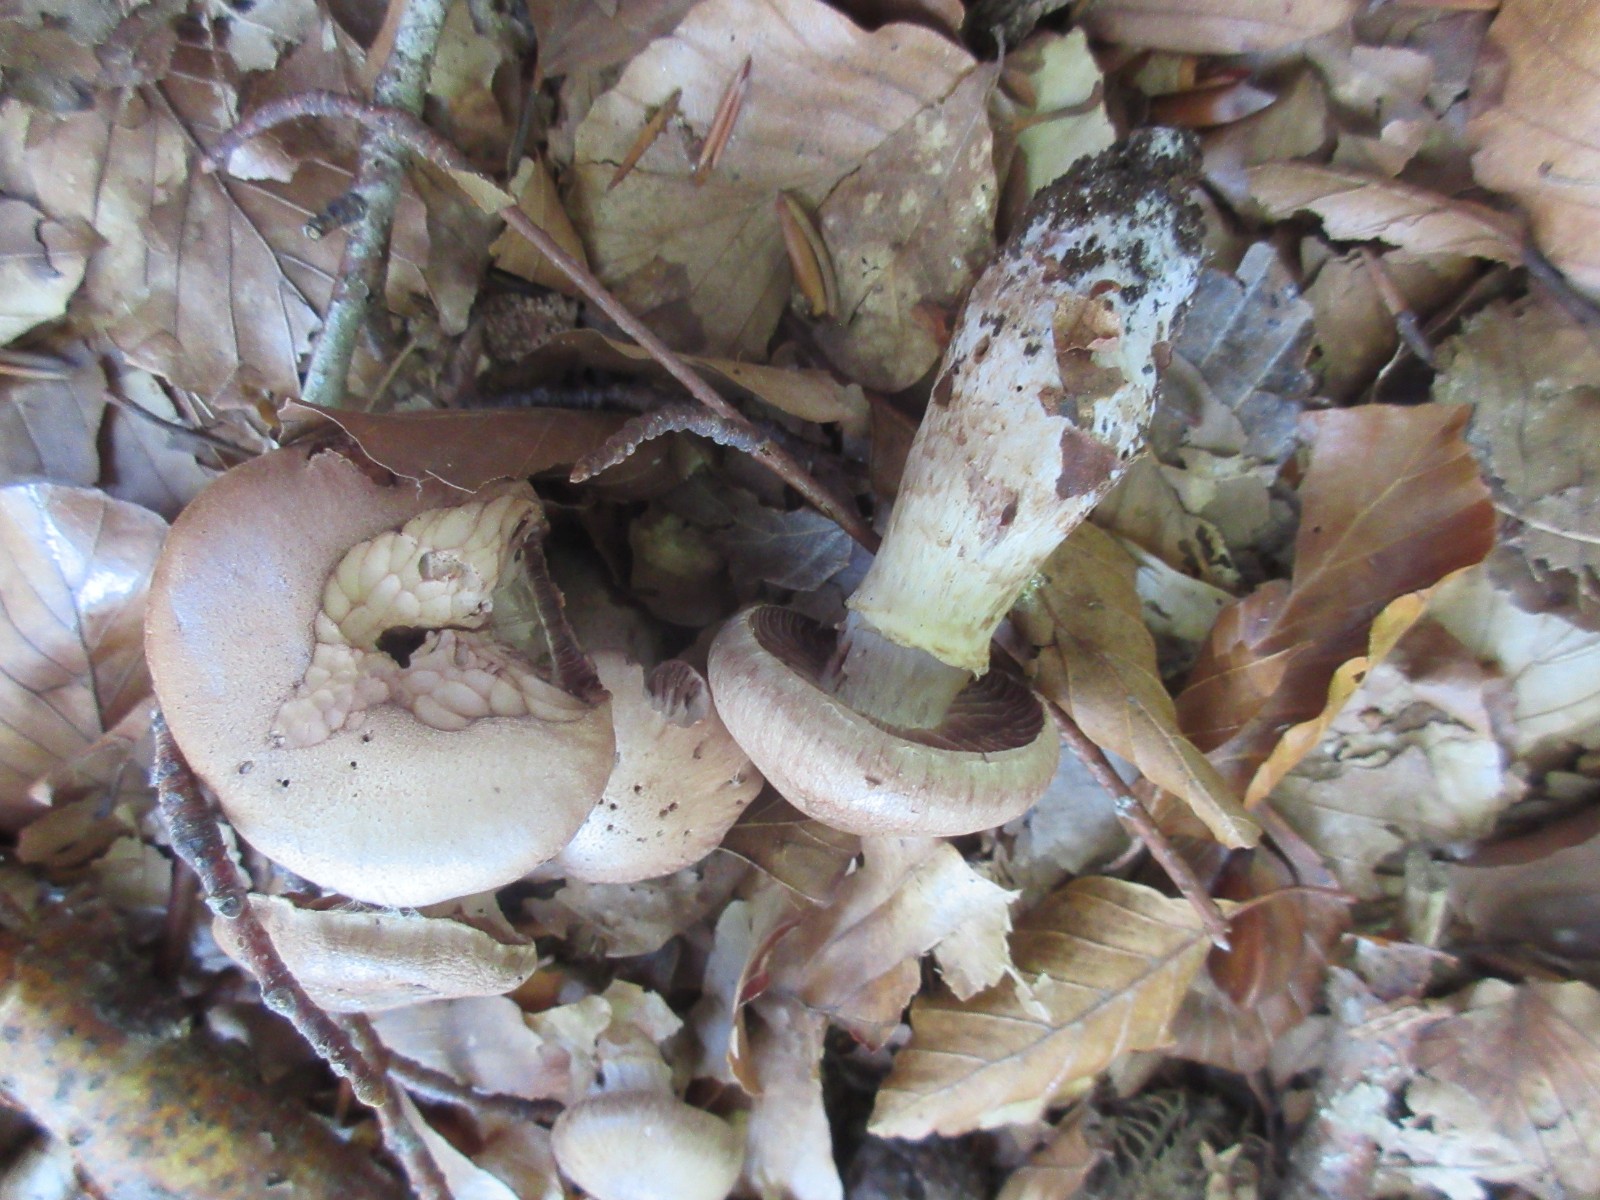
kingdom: Fungi
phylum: Basidiomycota
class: Agaricomycetes
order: Agaricales
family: Cortinariaceae
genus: Cortinarius
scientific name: Cortinarius torvus
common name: champignonagtig slørhat
